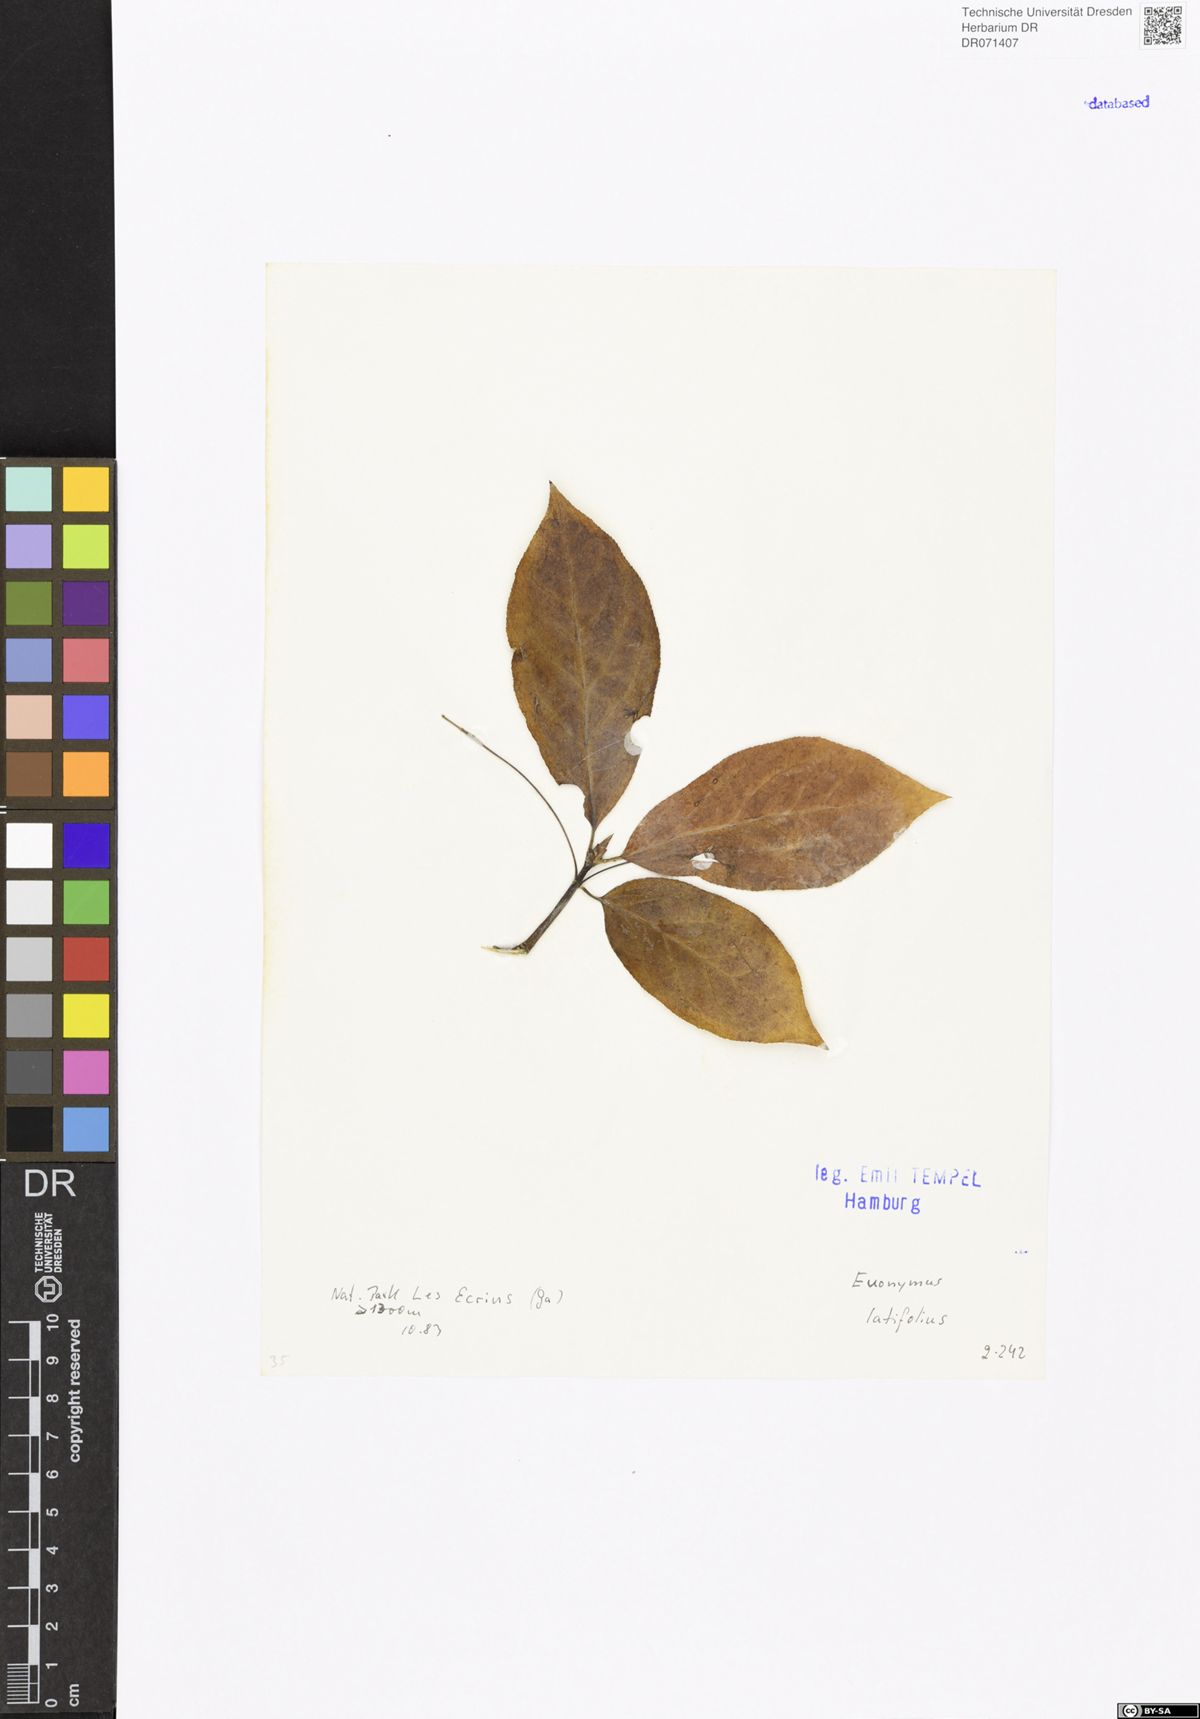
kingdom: Plantae
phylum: Tracheophyta
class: Magnoliopsida
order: Celastrales
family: Celastraceae
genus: Euonymus
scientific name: Euonymus latifolius
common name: Large-leaved spindle
